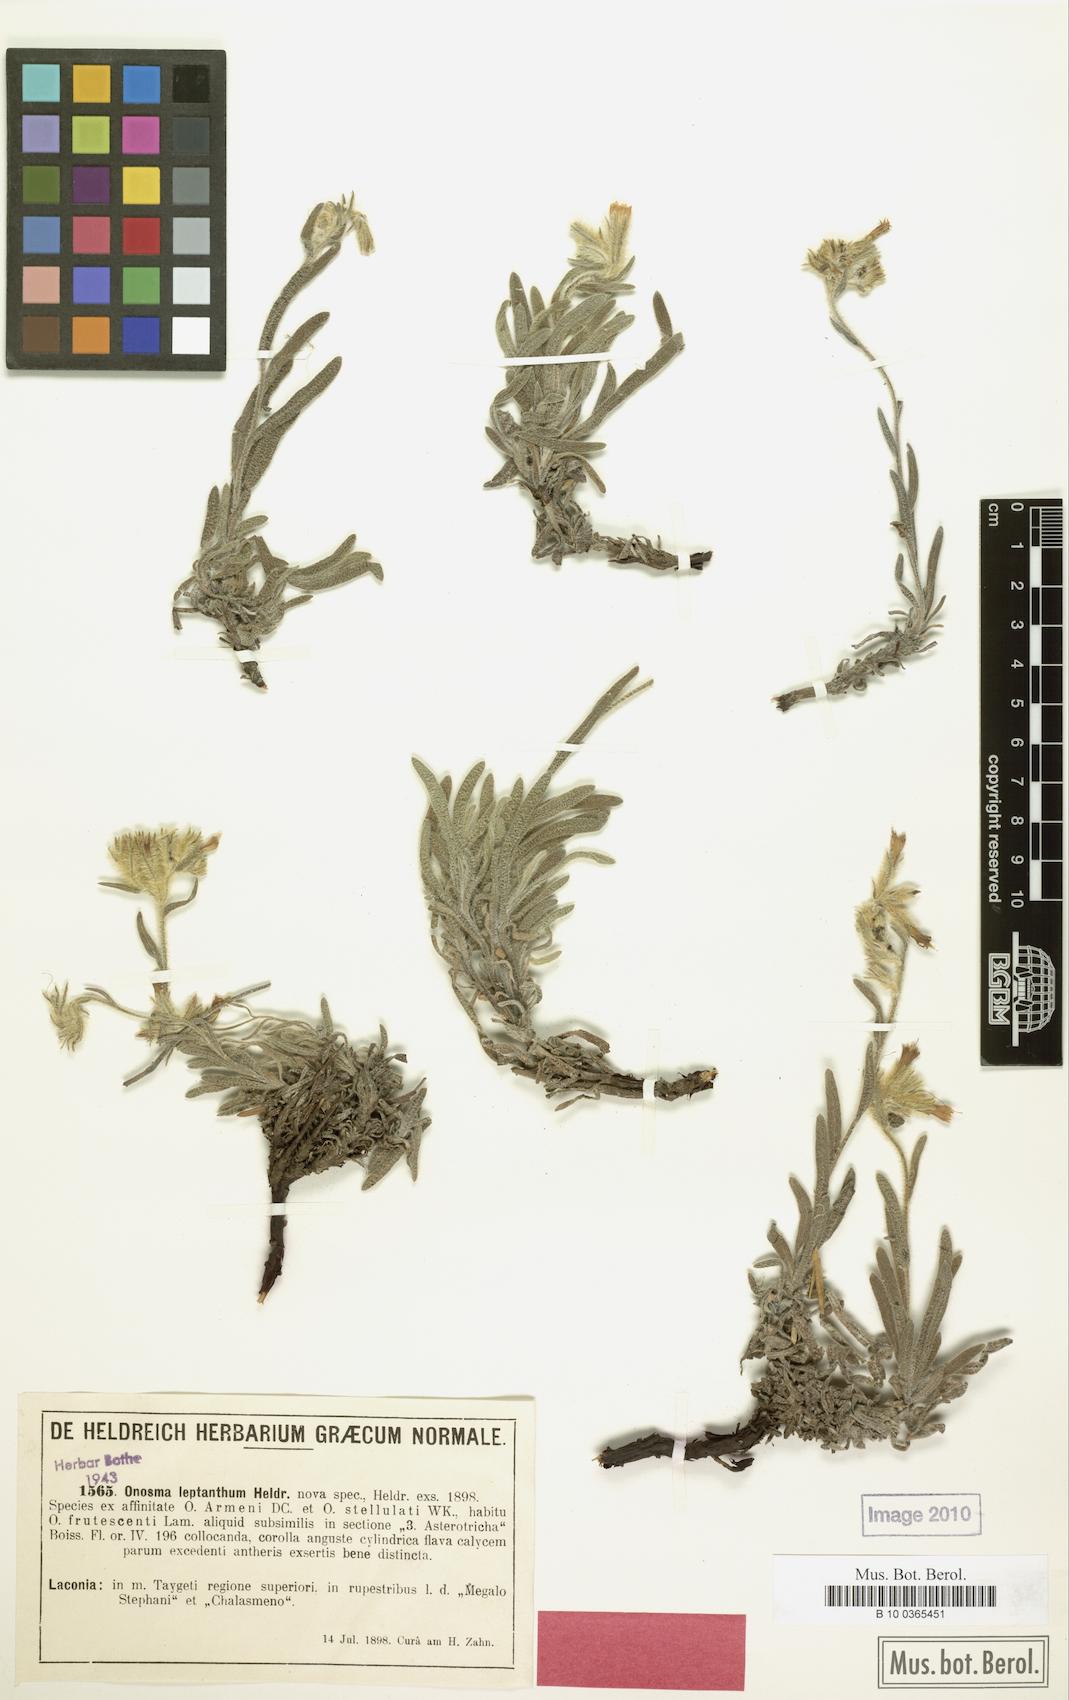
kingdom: Plantae
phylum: Tracheophyta
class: Magnoliopsida
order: Boraginales
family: Boraginaceae
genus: Onosma
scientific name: Onosma leptantha
